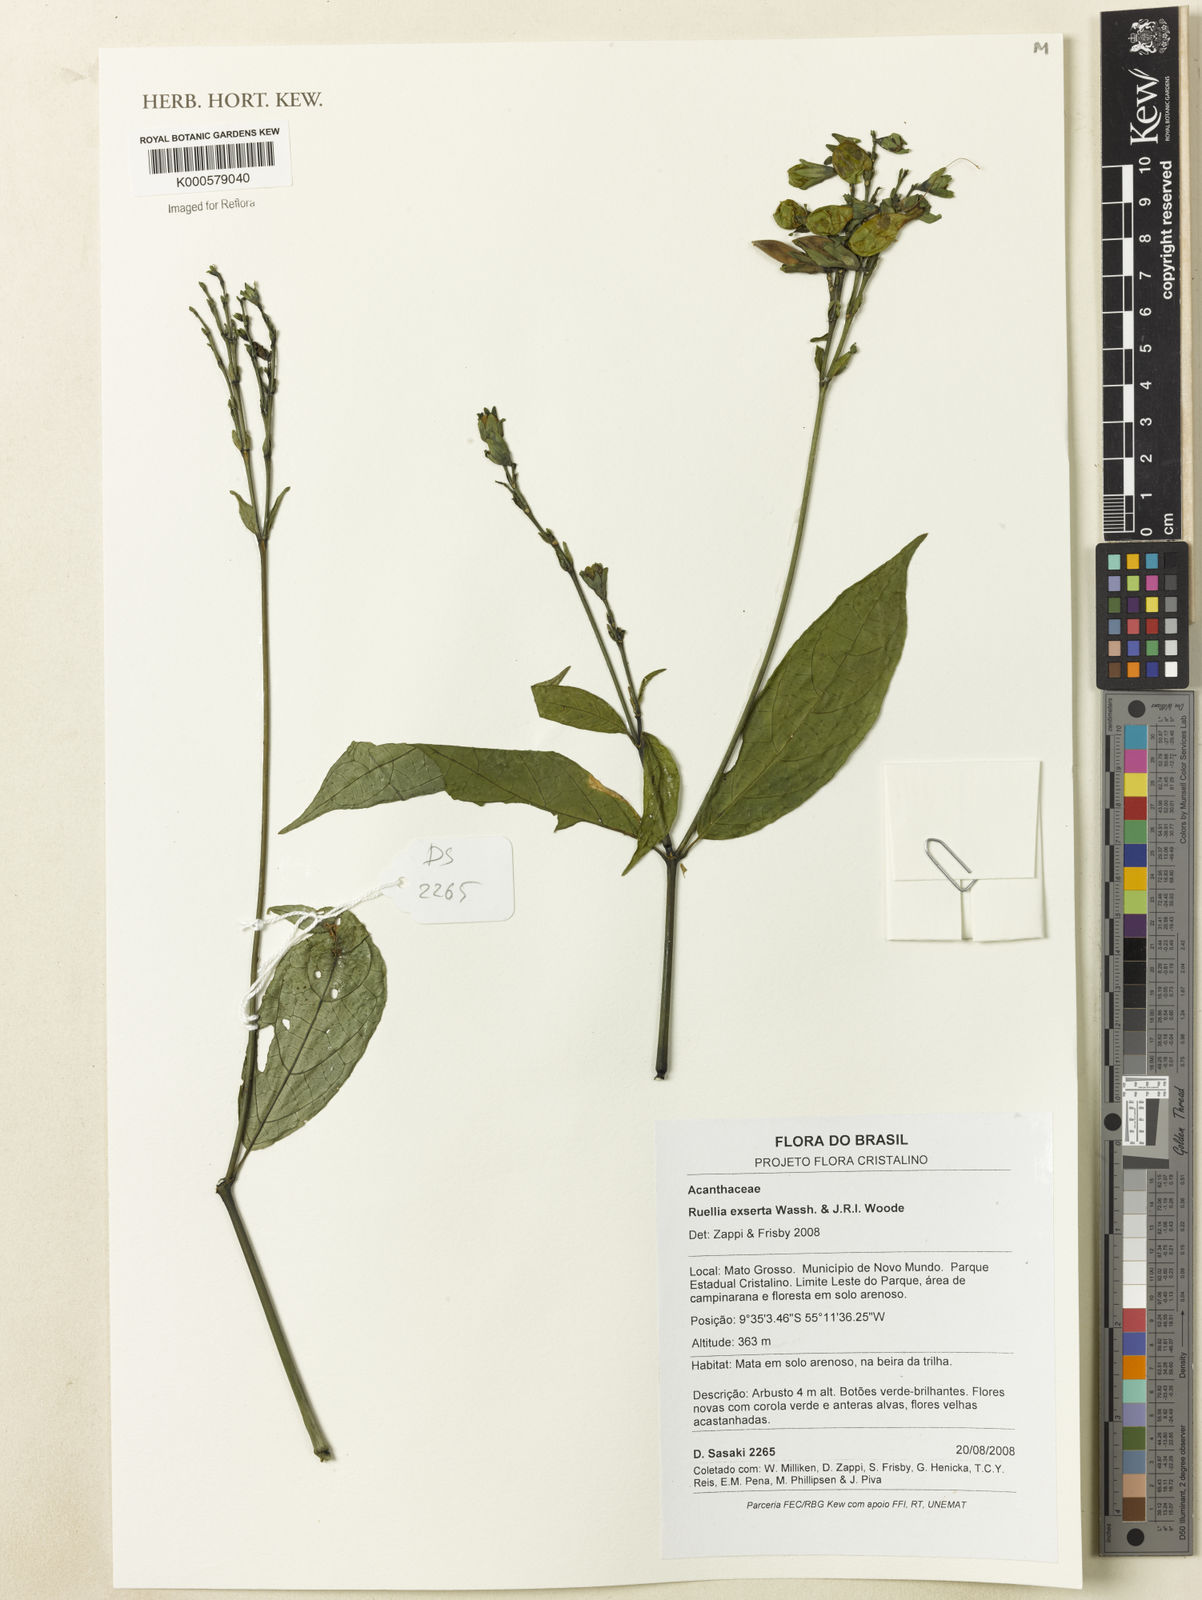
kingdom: Plantae
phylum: Tracheophyta
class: Magnoliopsida
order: Lamiales
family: Acanthaceae
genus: Ruellia
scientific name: Ruellia exserta
